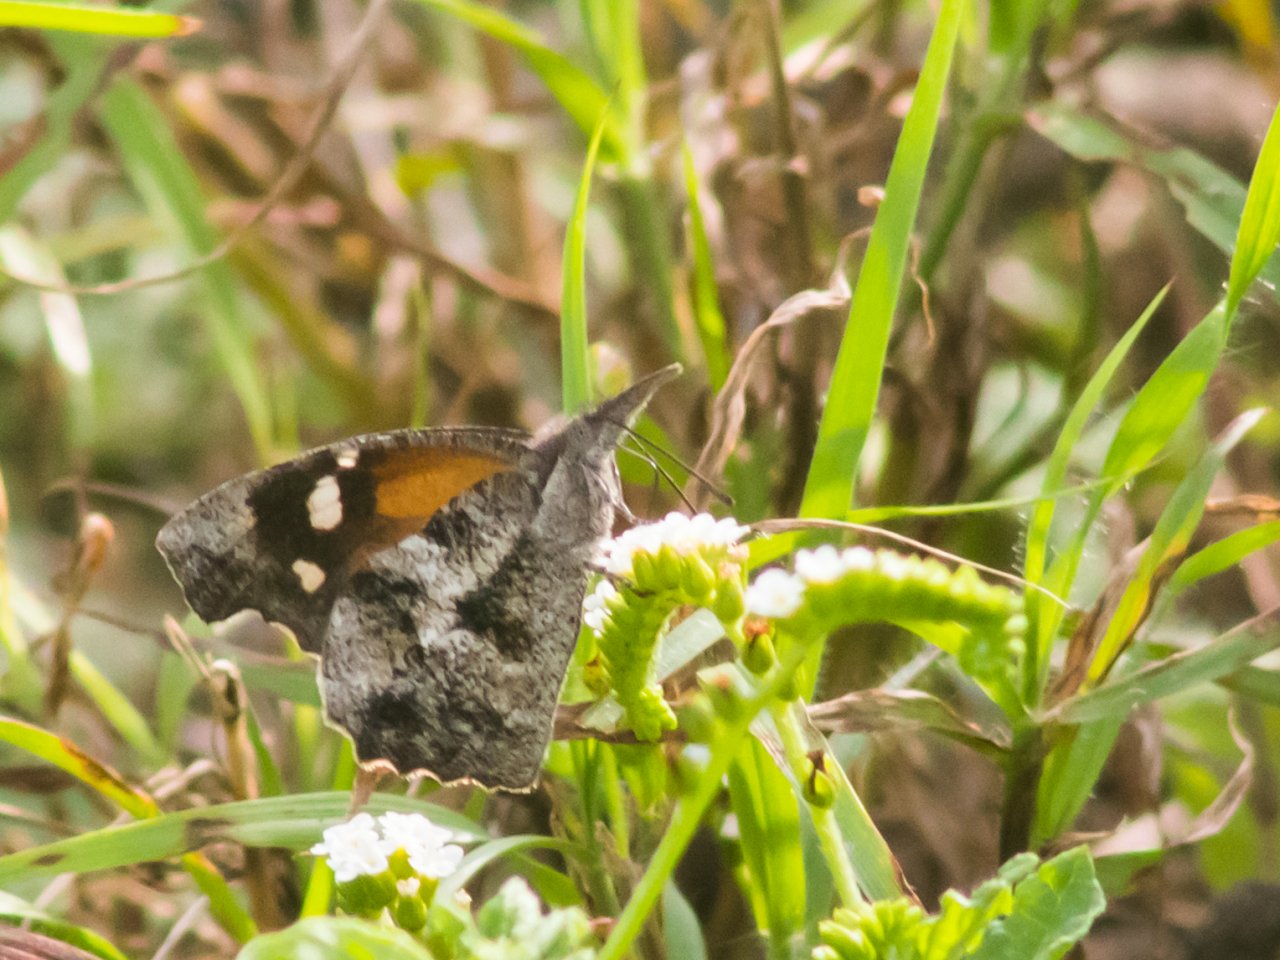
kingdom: Animalia
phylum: Arthropoda
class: Insecta
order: Lepidoptera
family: Nymphalidae
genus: Libytheana
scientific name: Libytheana carinenta
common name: American Snout
